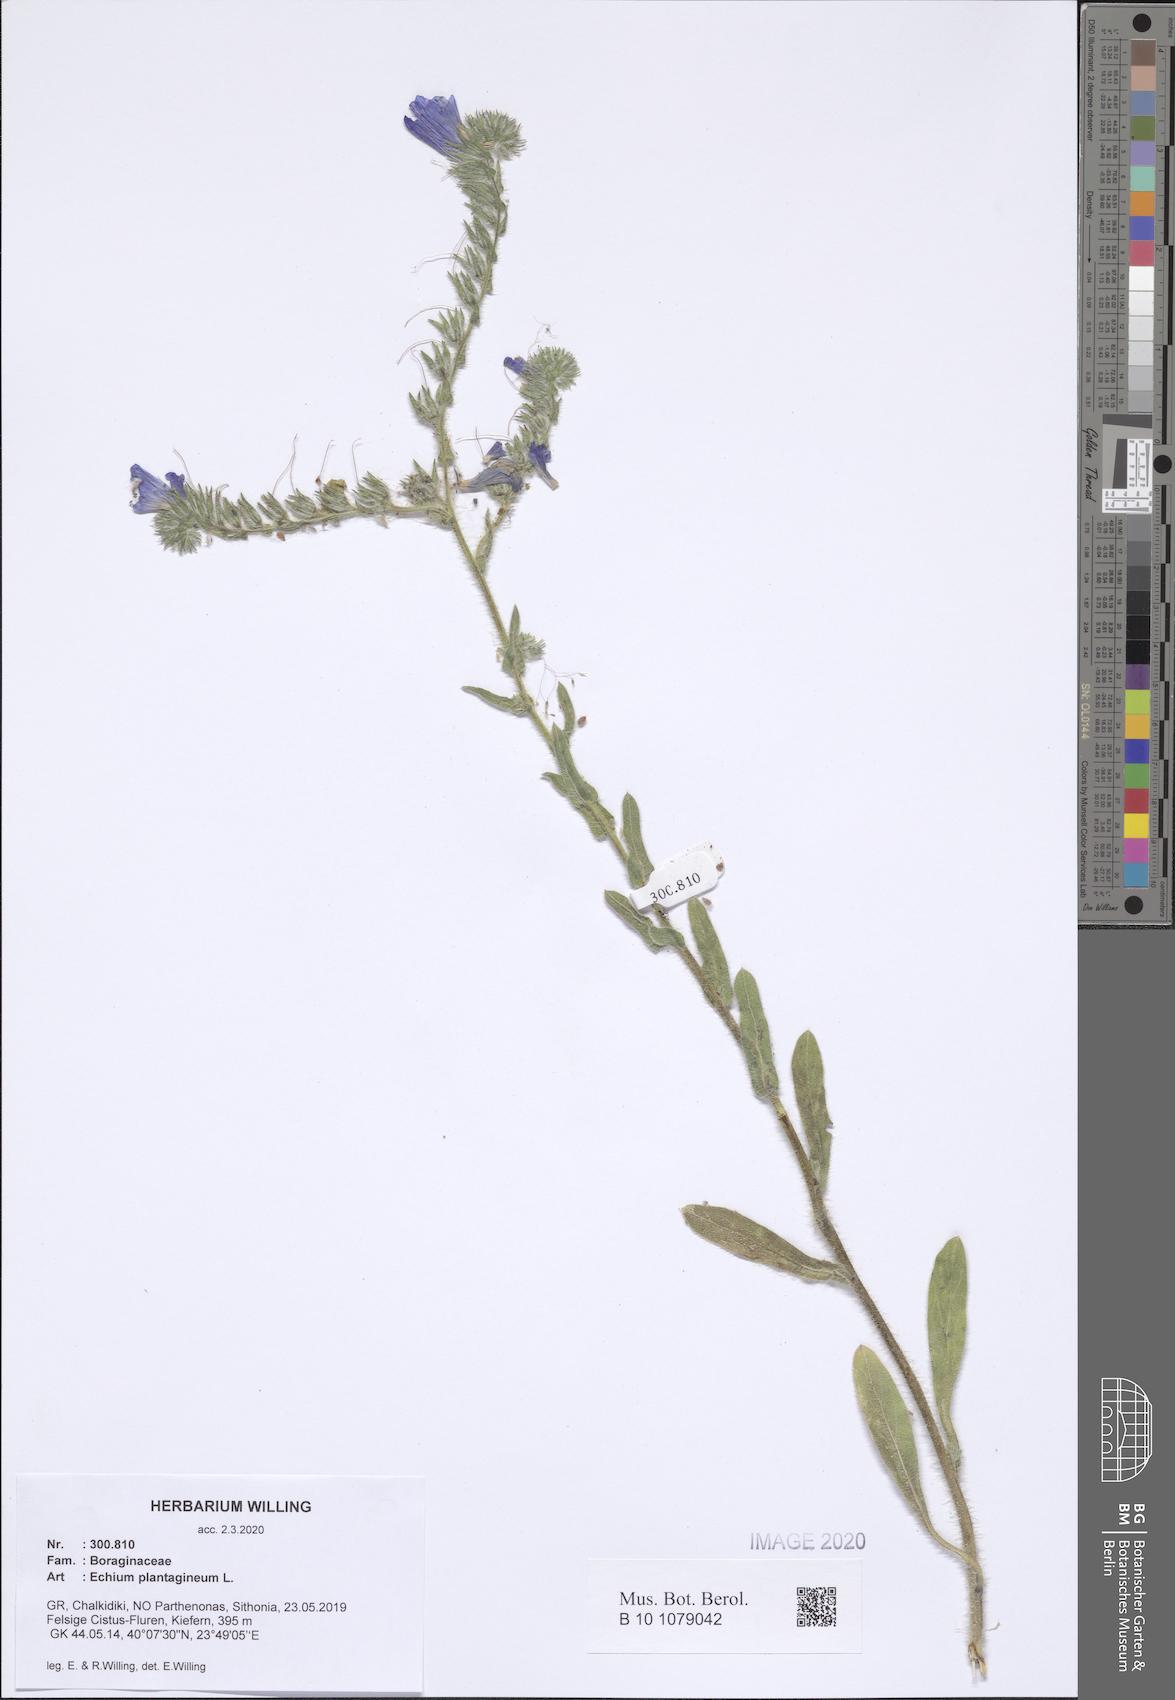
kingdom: Plantae
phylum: Tracheophyta
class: Magnoliopsida
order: Boraginales
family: Boraginaceae
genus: Echium
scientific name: Echium plantagineum
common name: Purple viper's-bugloss
